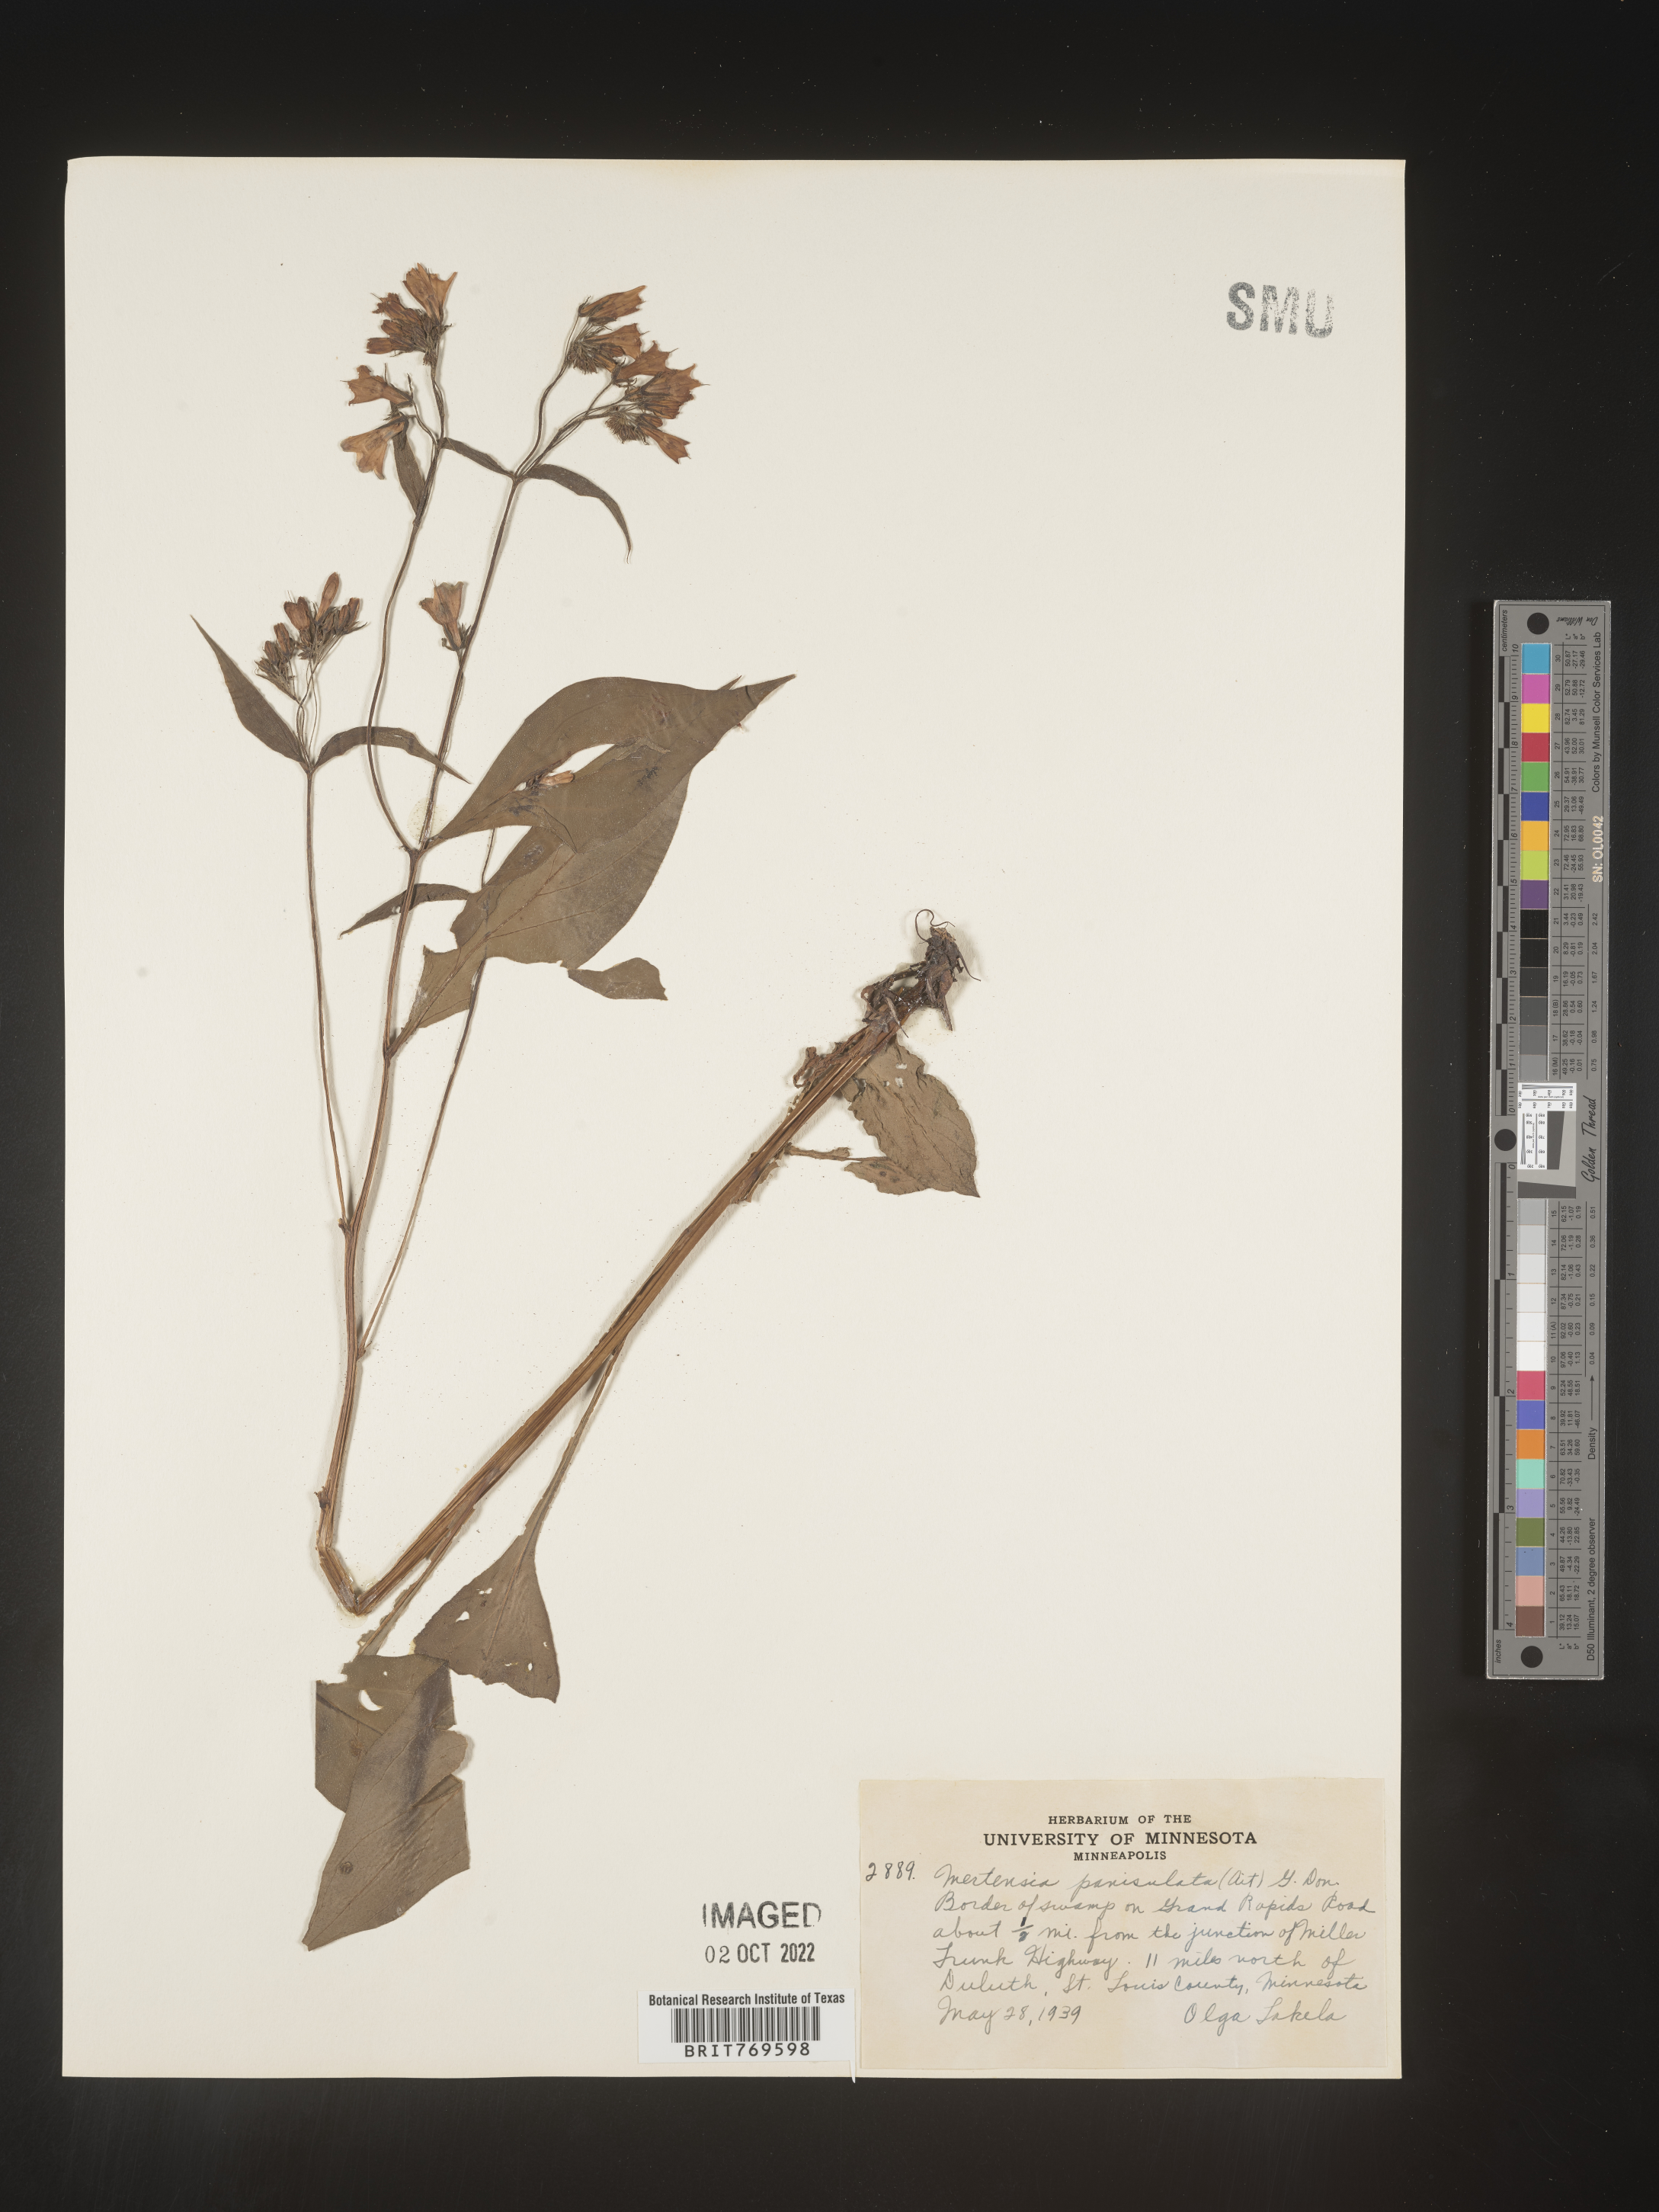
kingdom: Plantae
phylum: Tracheophyta
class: Magnoliopsida
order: Boraginales
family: Boraginaceae
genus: Mertensia
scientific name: Mertensia
